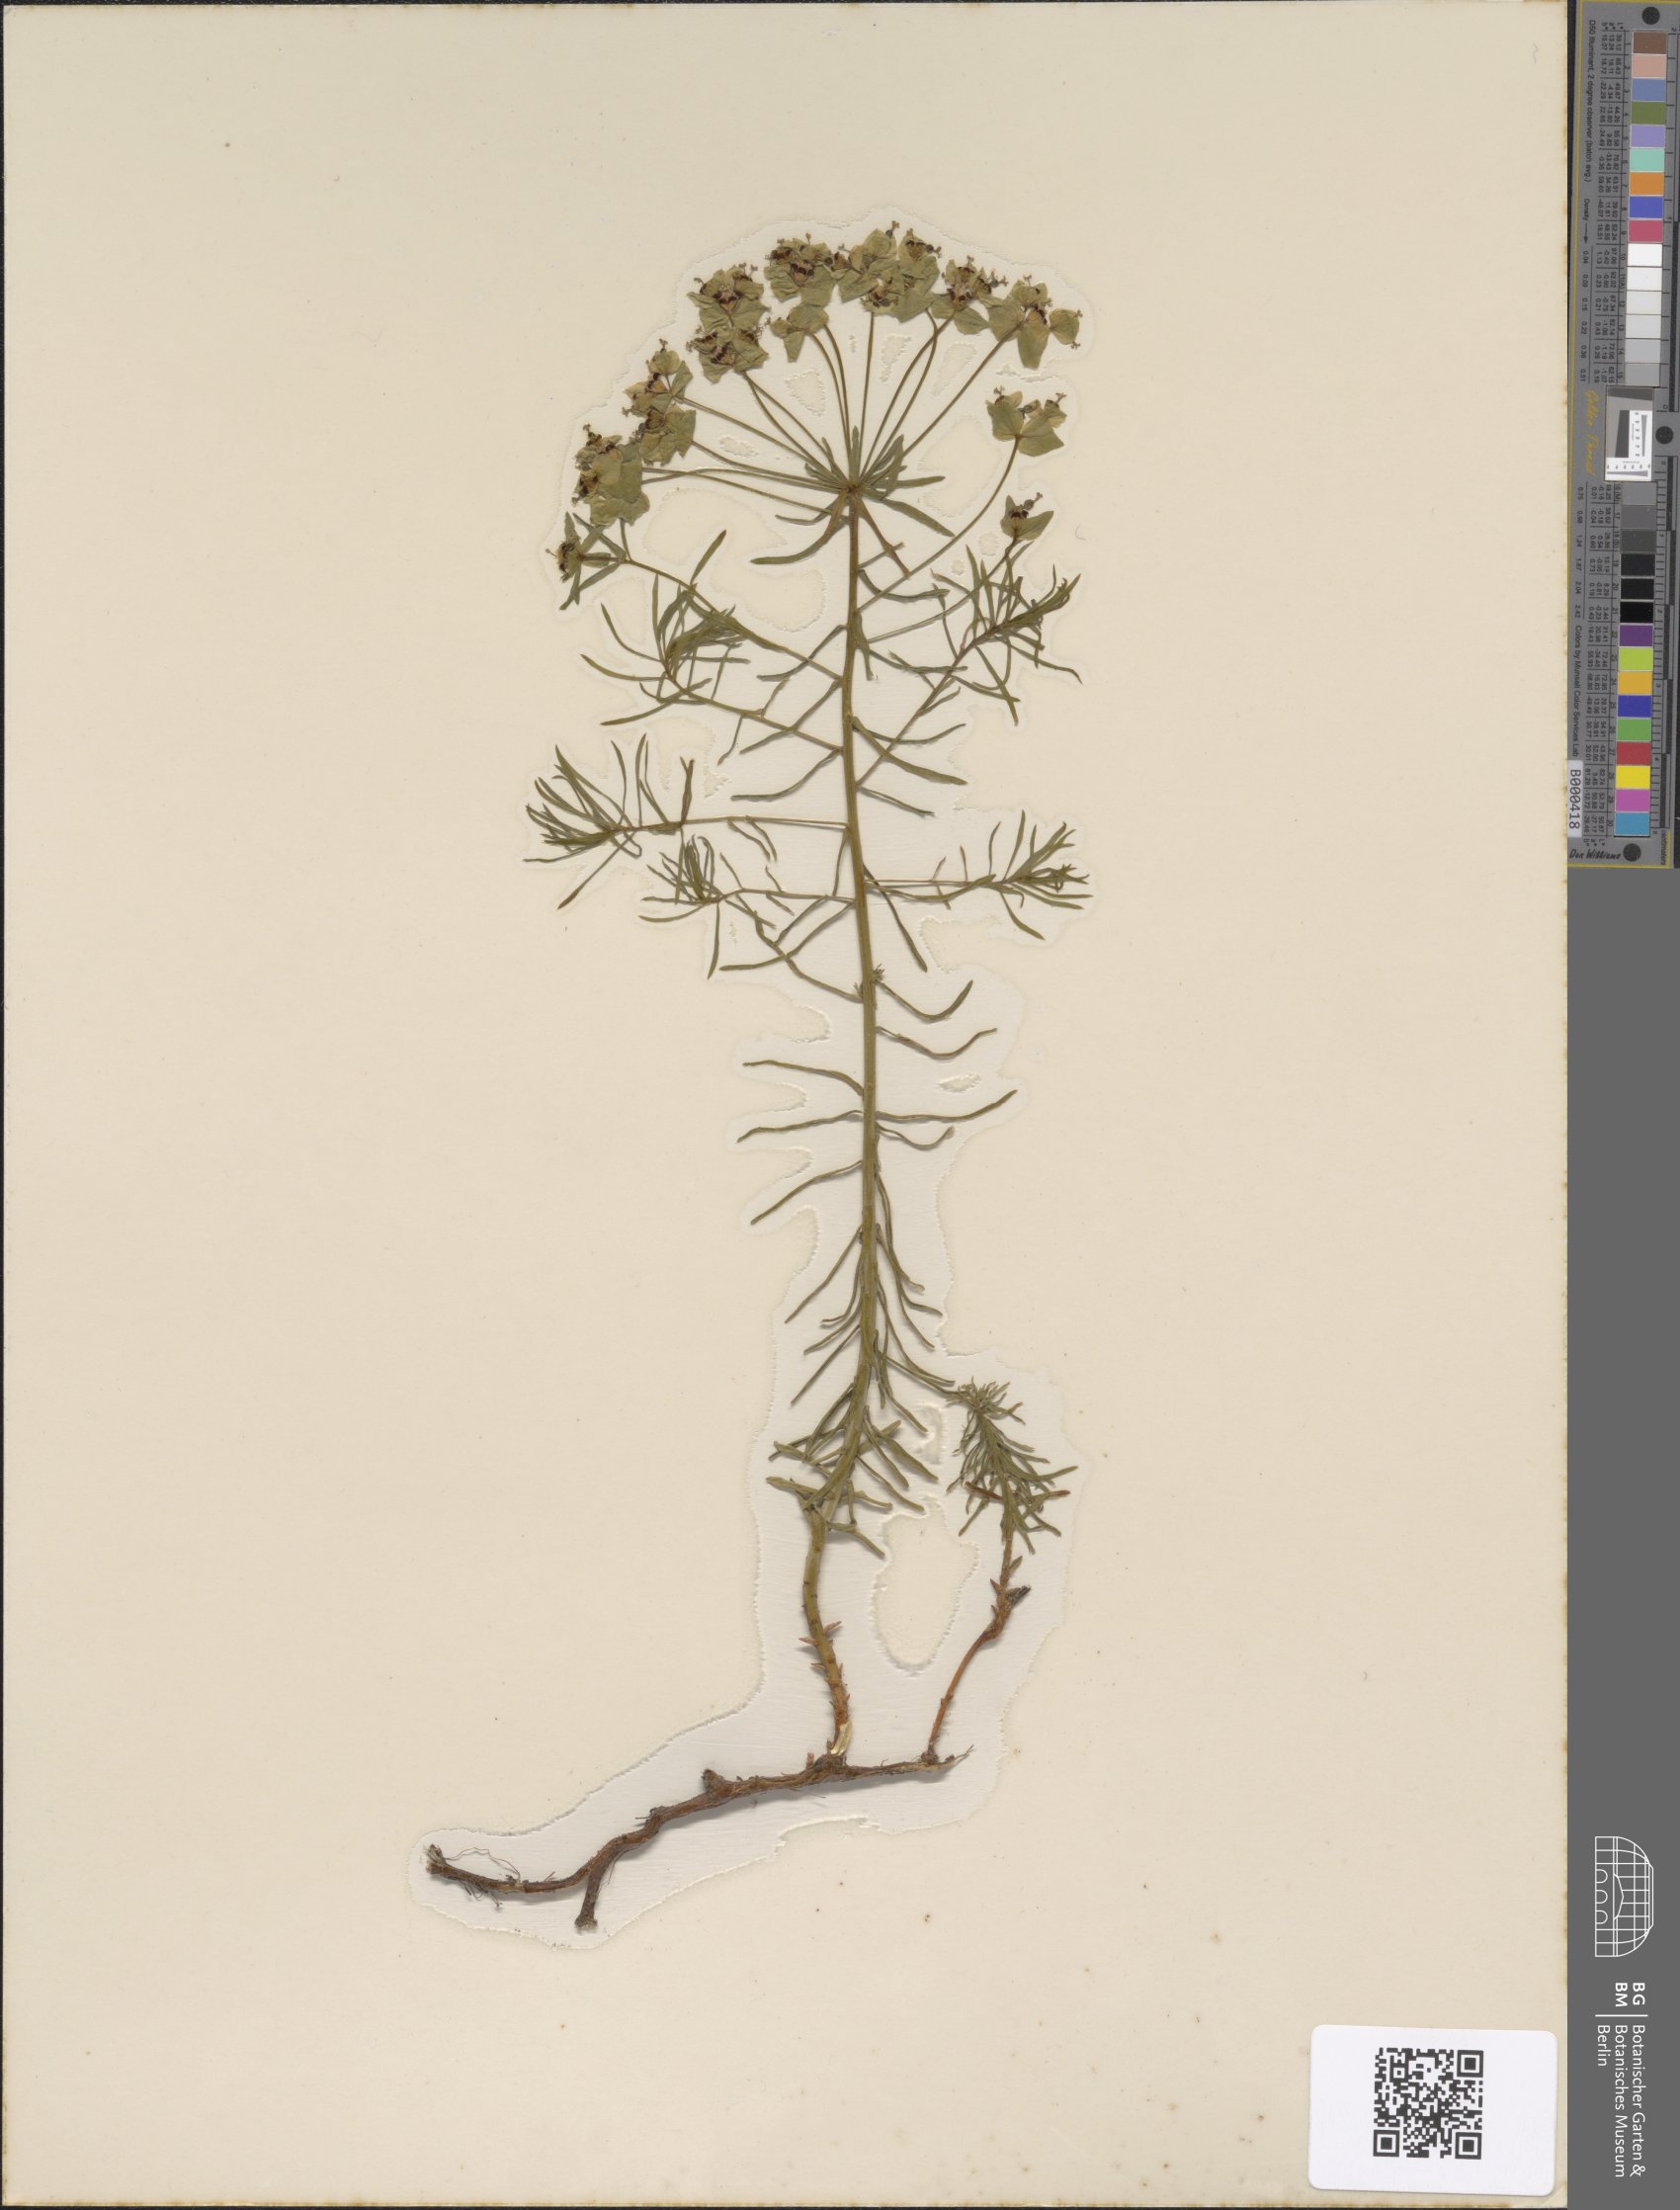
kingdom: Plantae
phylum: Tracheophyta
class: Magnoliopsida
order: Malpighiales
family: Euphorbiaceae
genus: Euphorbia
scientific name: Euphorbia cyparissias
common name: Cypress spurge
